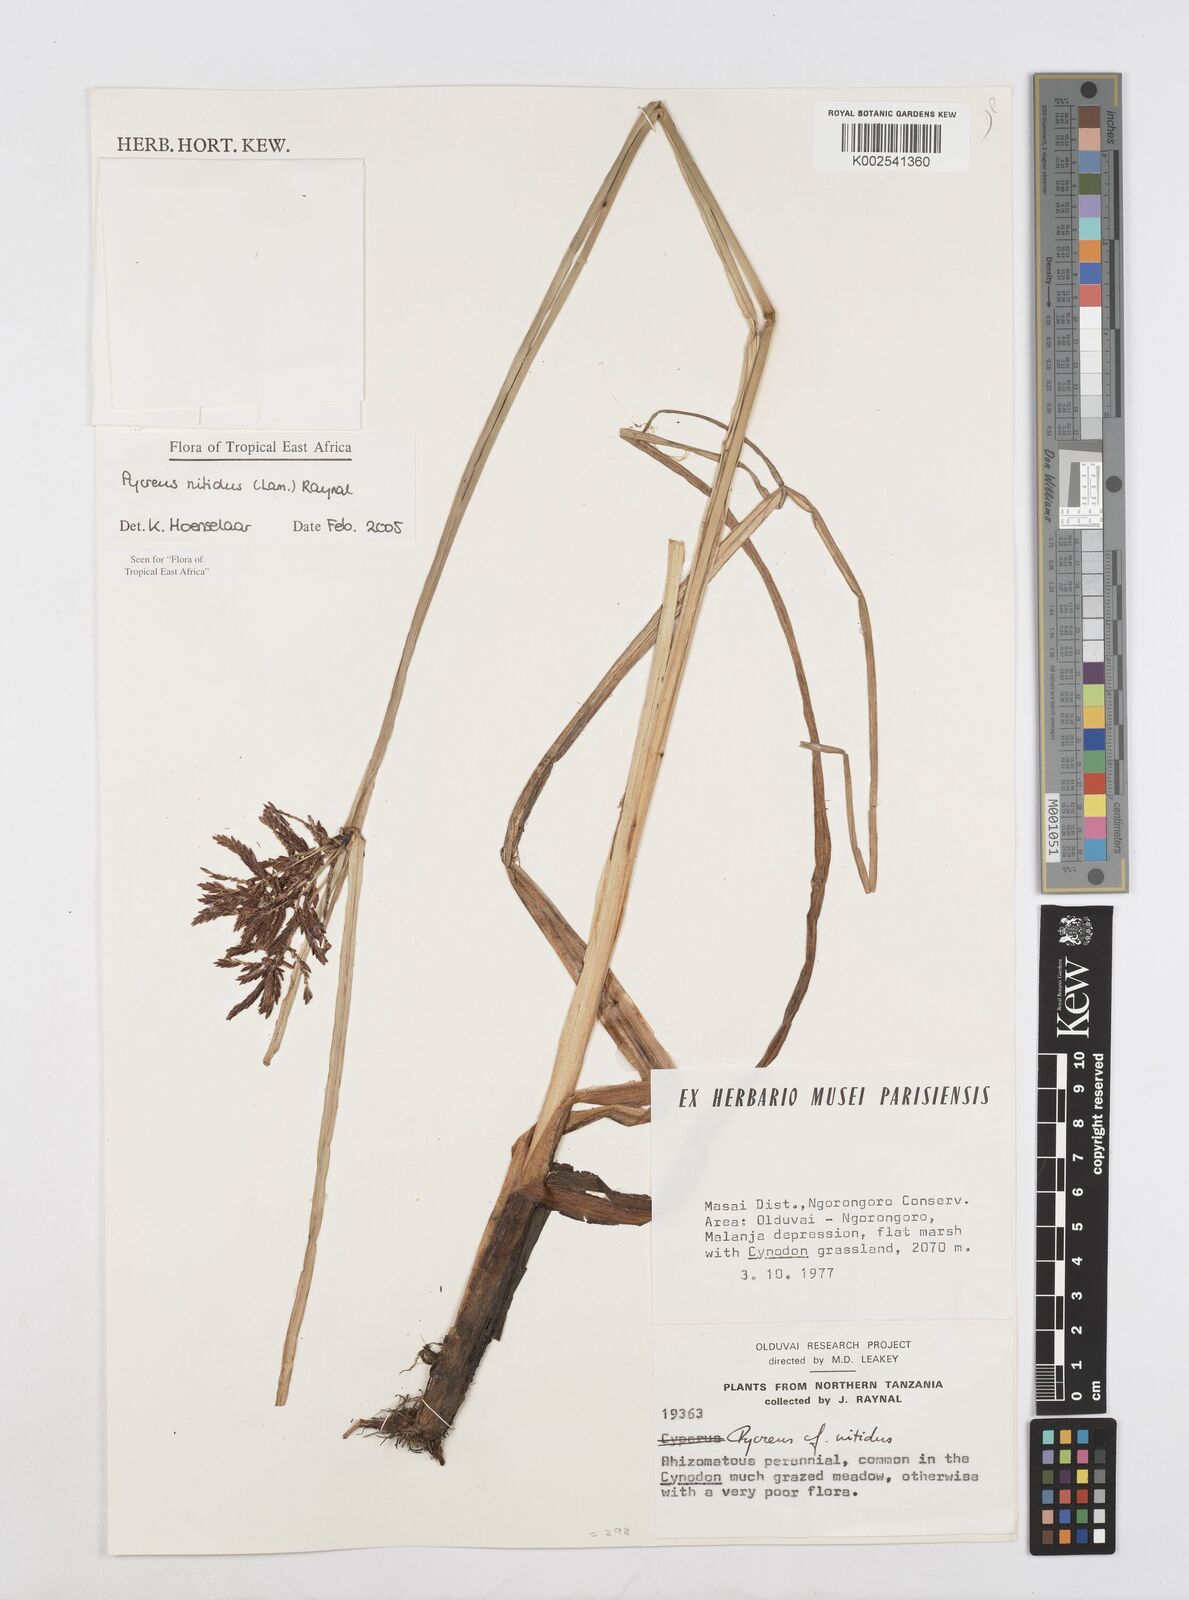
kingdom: Plantae
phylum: Tracheophyta
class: Liliopsida
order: Poales
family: Cyperaceae
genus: Cyperus
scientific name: Cyperus nitidus
